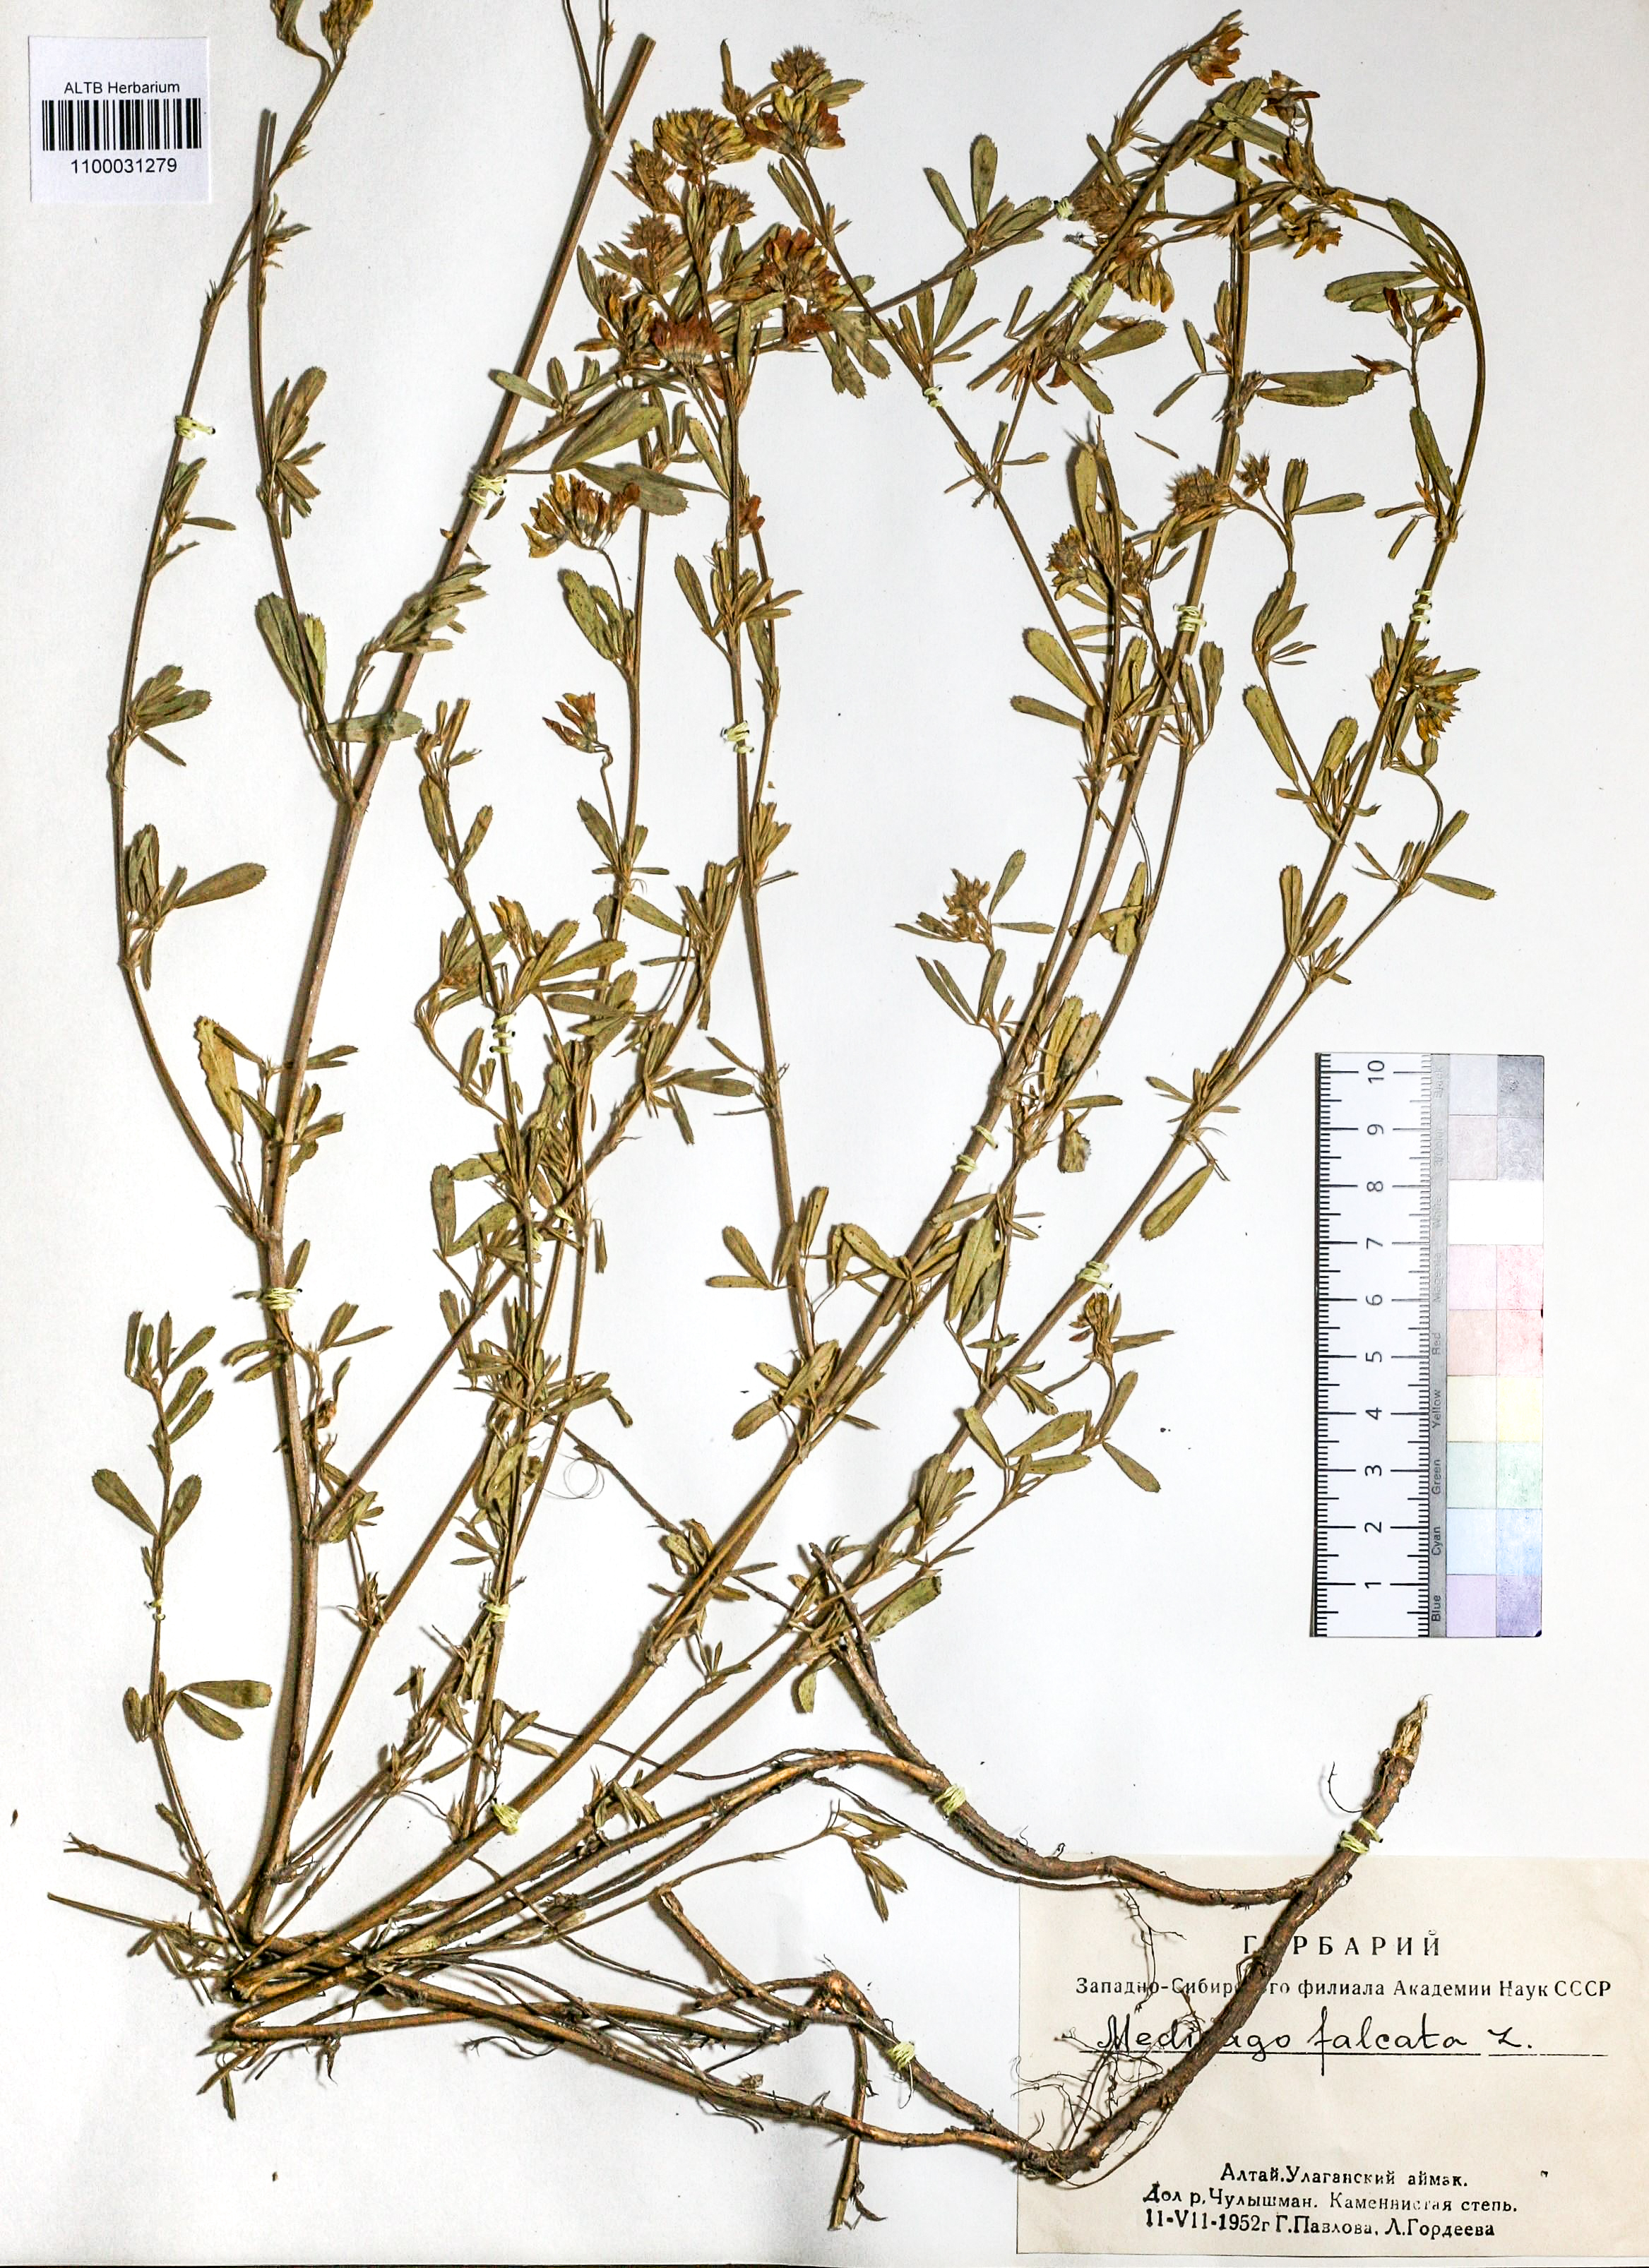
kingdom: Plantae
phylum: Tracheophyta
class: Magnoliopsida
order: Fabales
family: Fabaceae
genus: Medicago
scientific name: Medicago falcata
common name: Sickle medick
